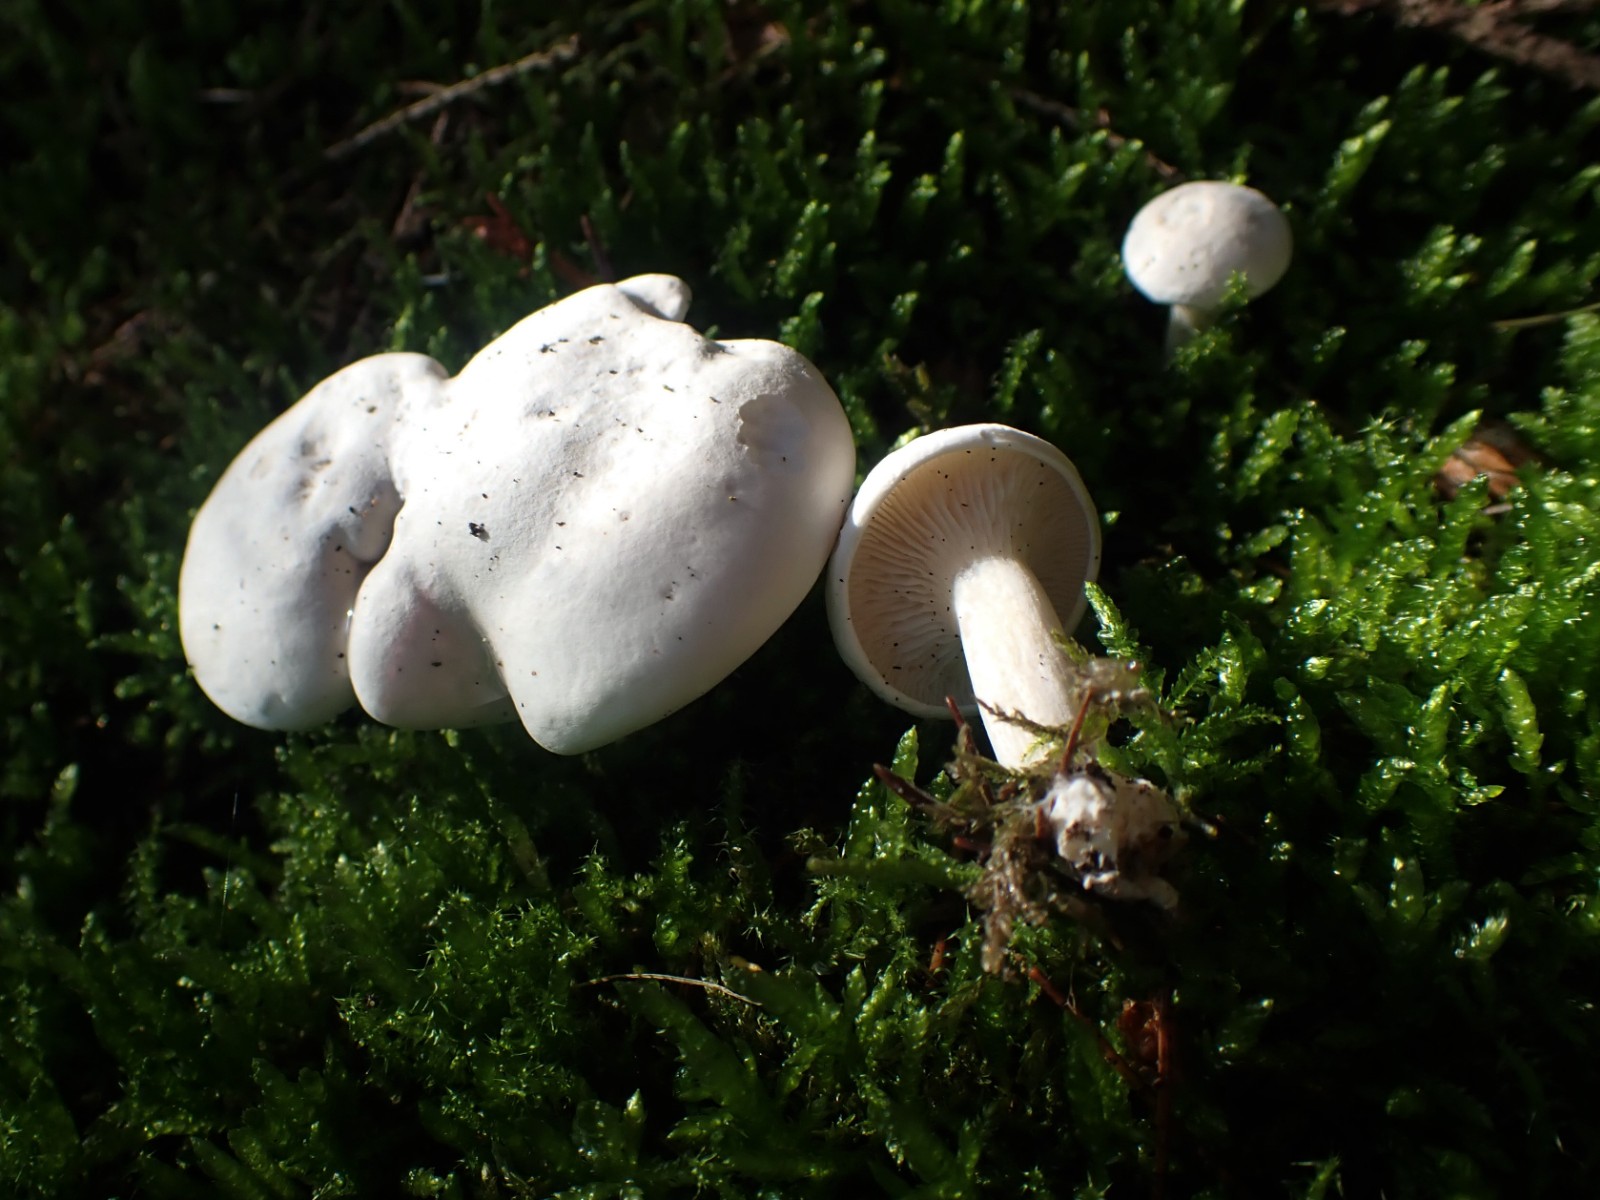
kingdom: Fungi
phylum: Basidiomycota
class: Agaricomycetes
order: Agaricales
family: Entolomataceae
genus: Clitopilus
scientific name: Clitopilus prunulus
